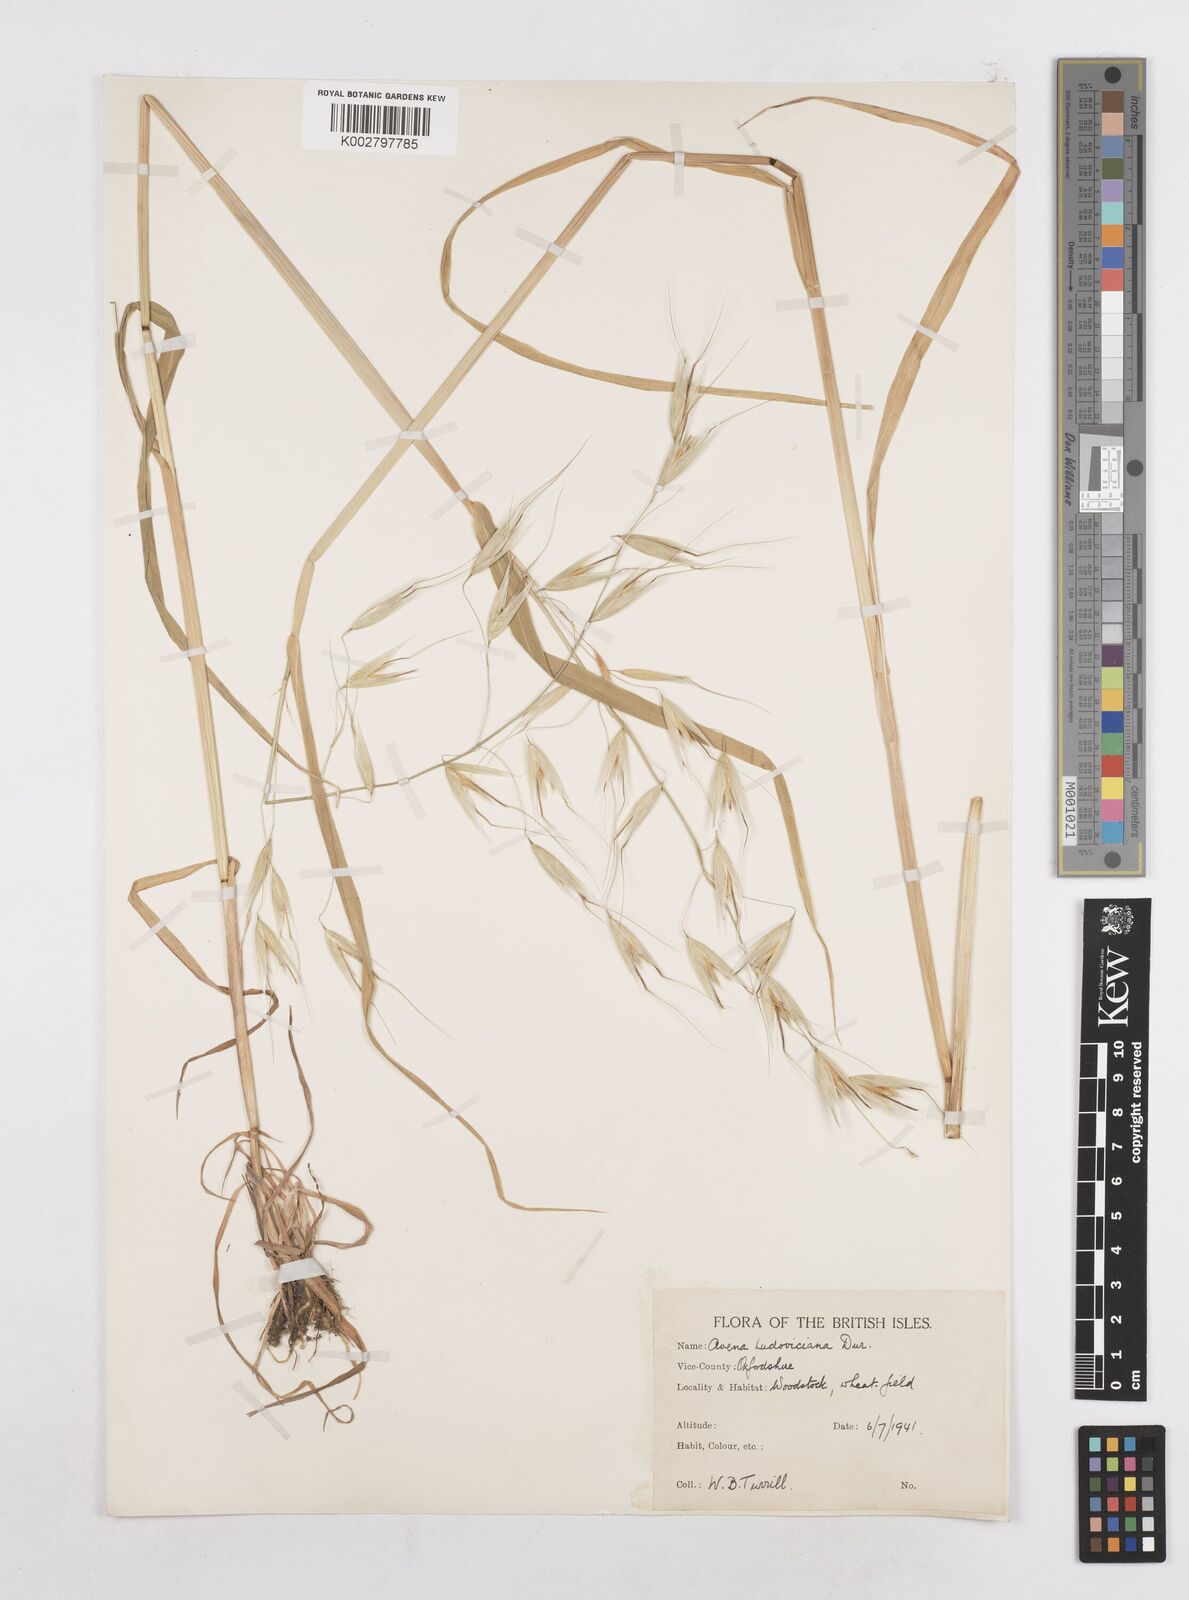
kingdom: Plantae
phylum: Tracheophyta
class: Liliopsida
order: Poales
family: Poaceae
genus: Avena
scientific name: Avena sterilis
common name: Animated oat
